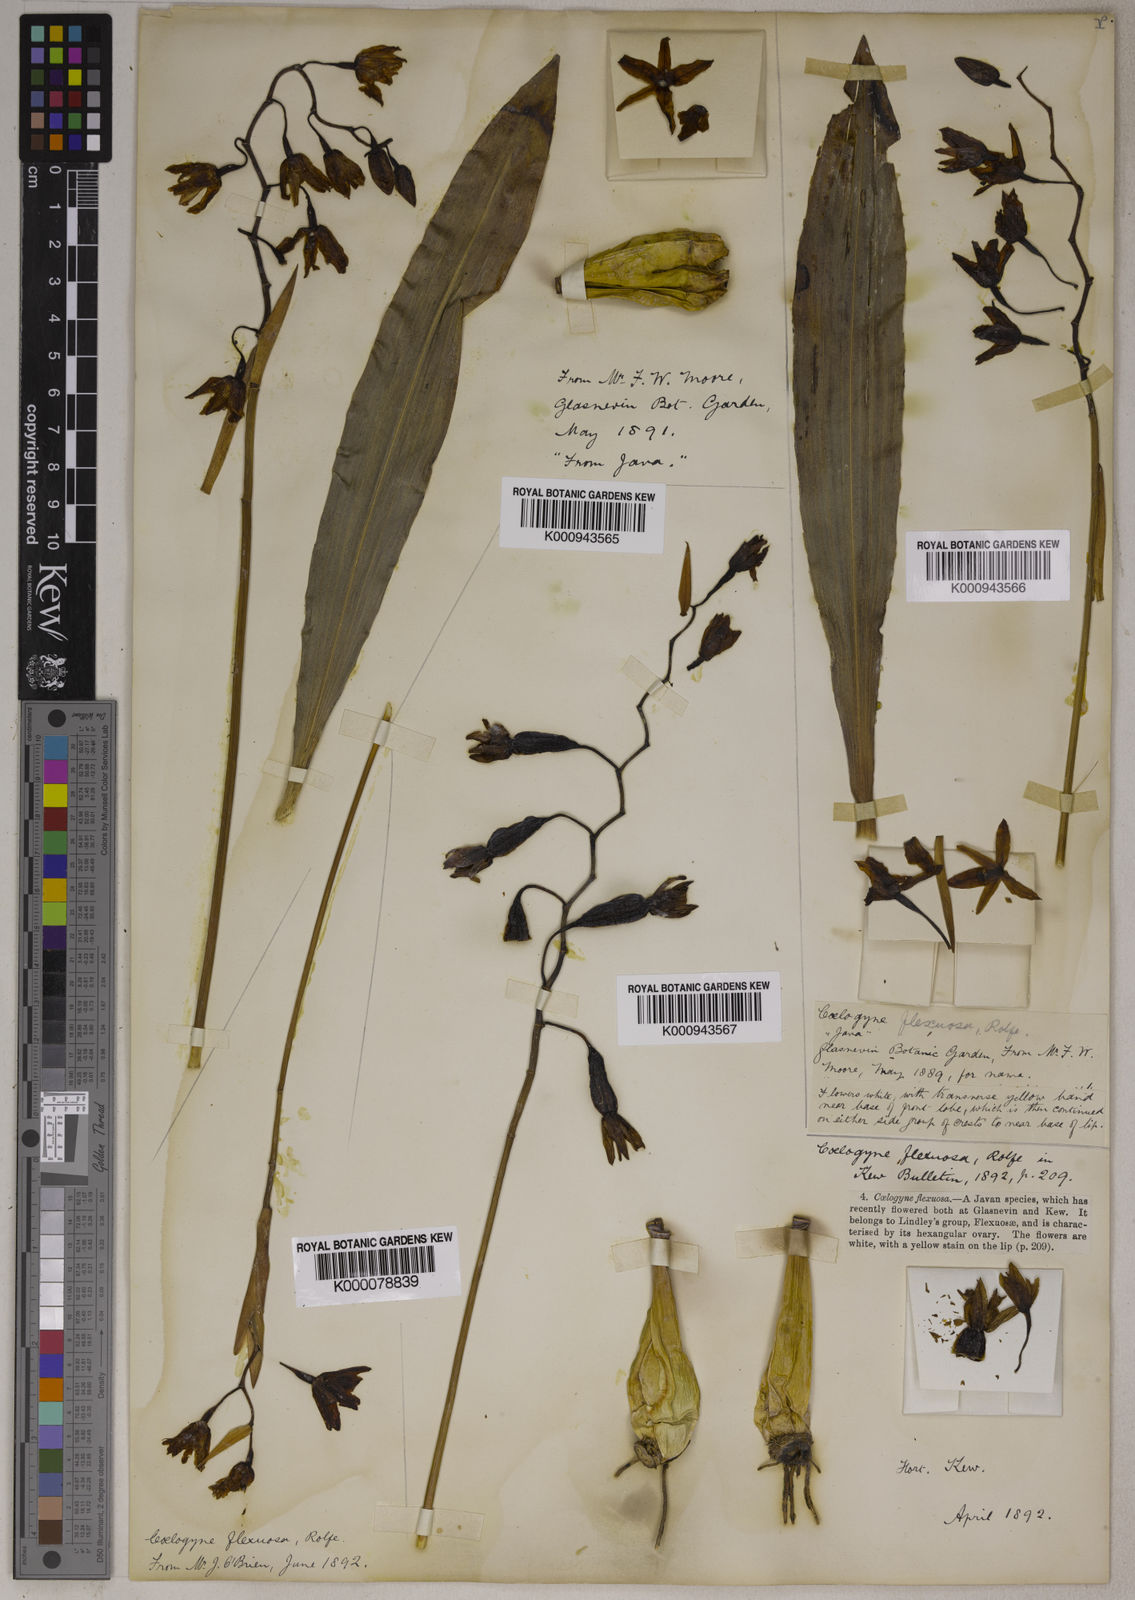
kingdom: Plantae
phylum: Tracheophyta
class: Liliopsida
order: Asparagales
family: Orchidaceae
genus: Coelogyne
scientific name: Coelogyne flexuosa
